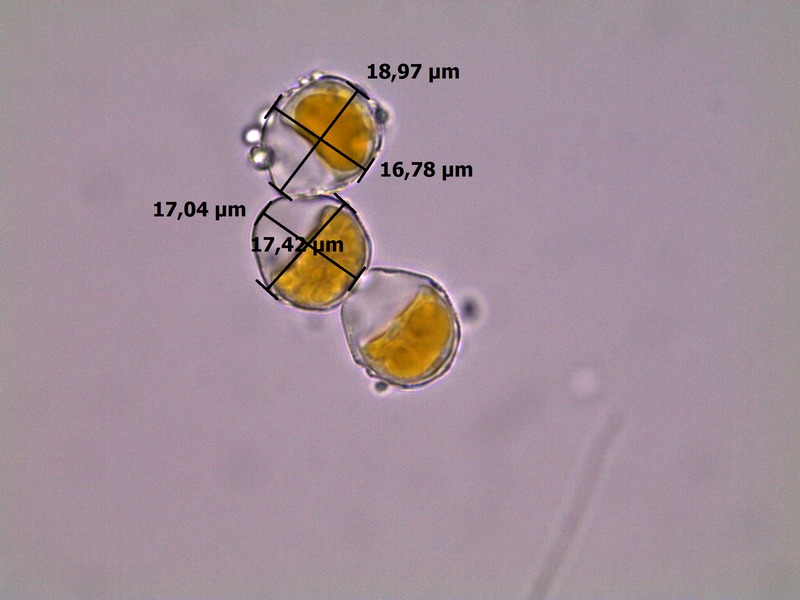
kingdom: Fungi
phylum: Basidiomycota
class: Pucciniomycetes
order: Pucciniales
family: Pucciniaceae
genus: Puccinia
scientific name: Puccinia graminis
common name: Black stem rust
